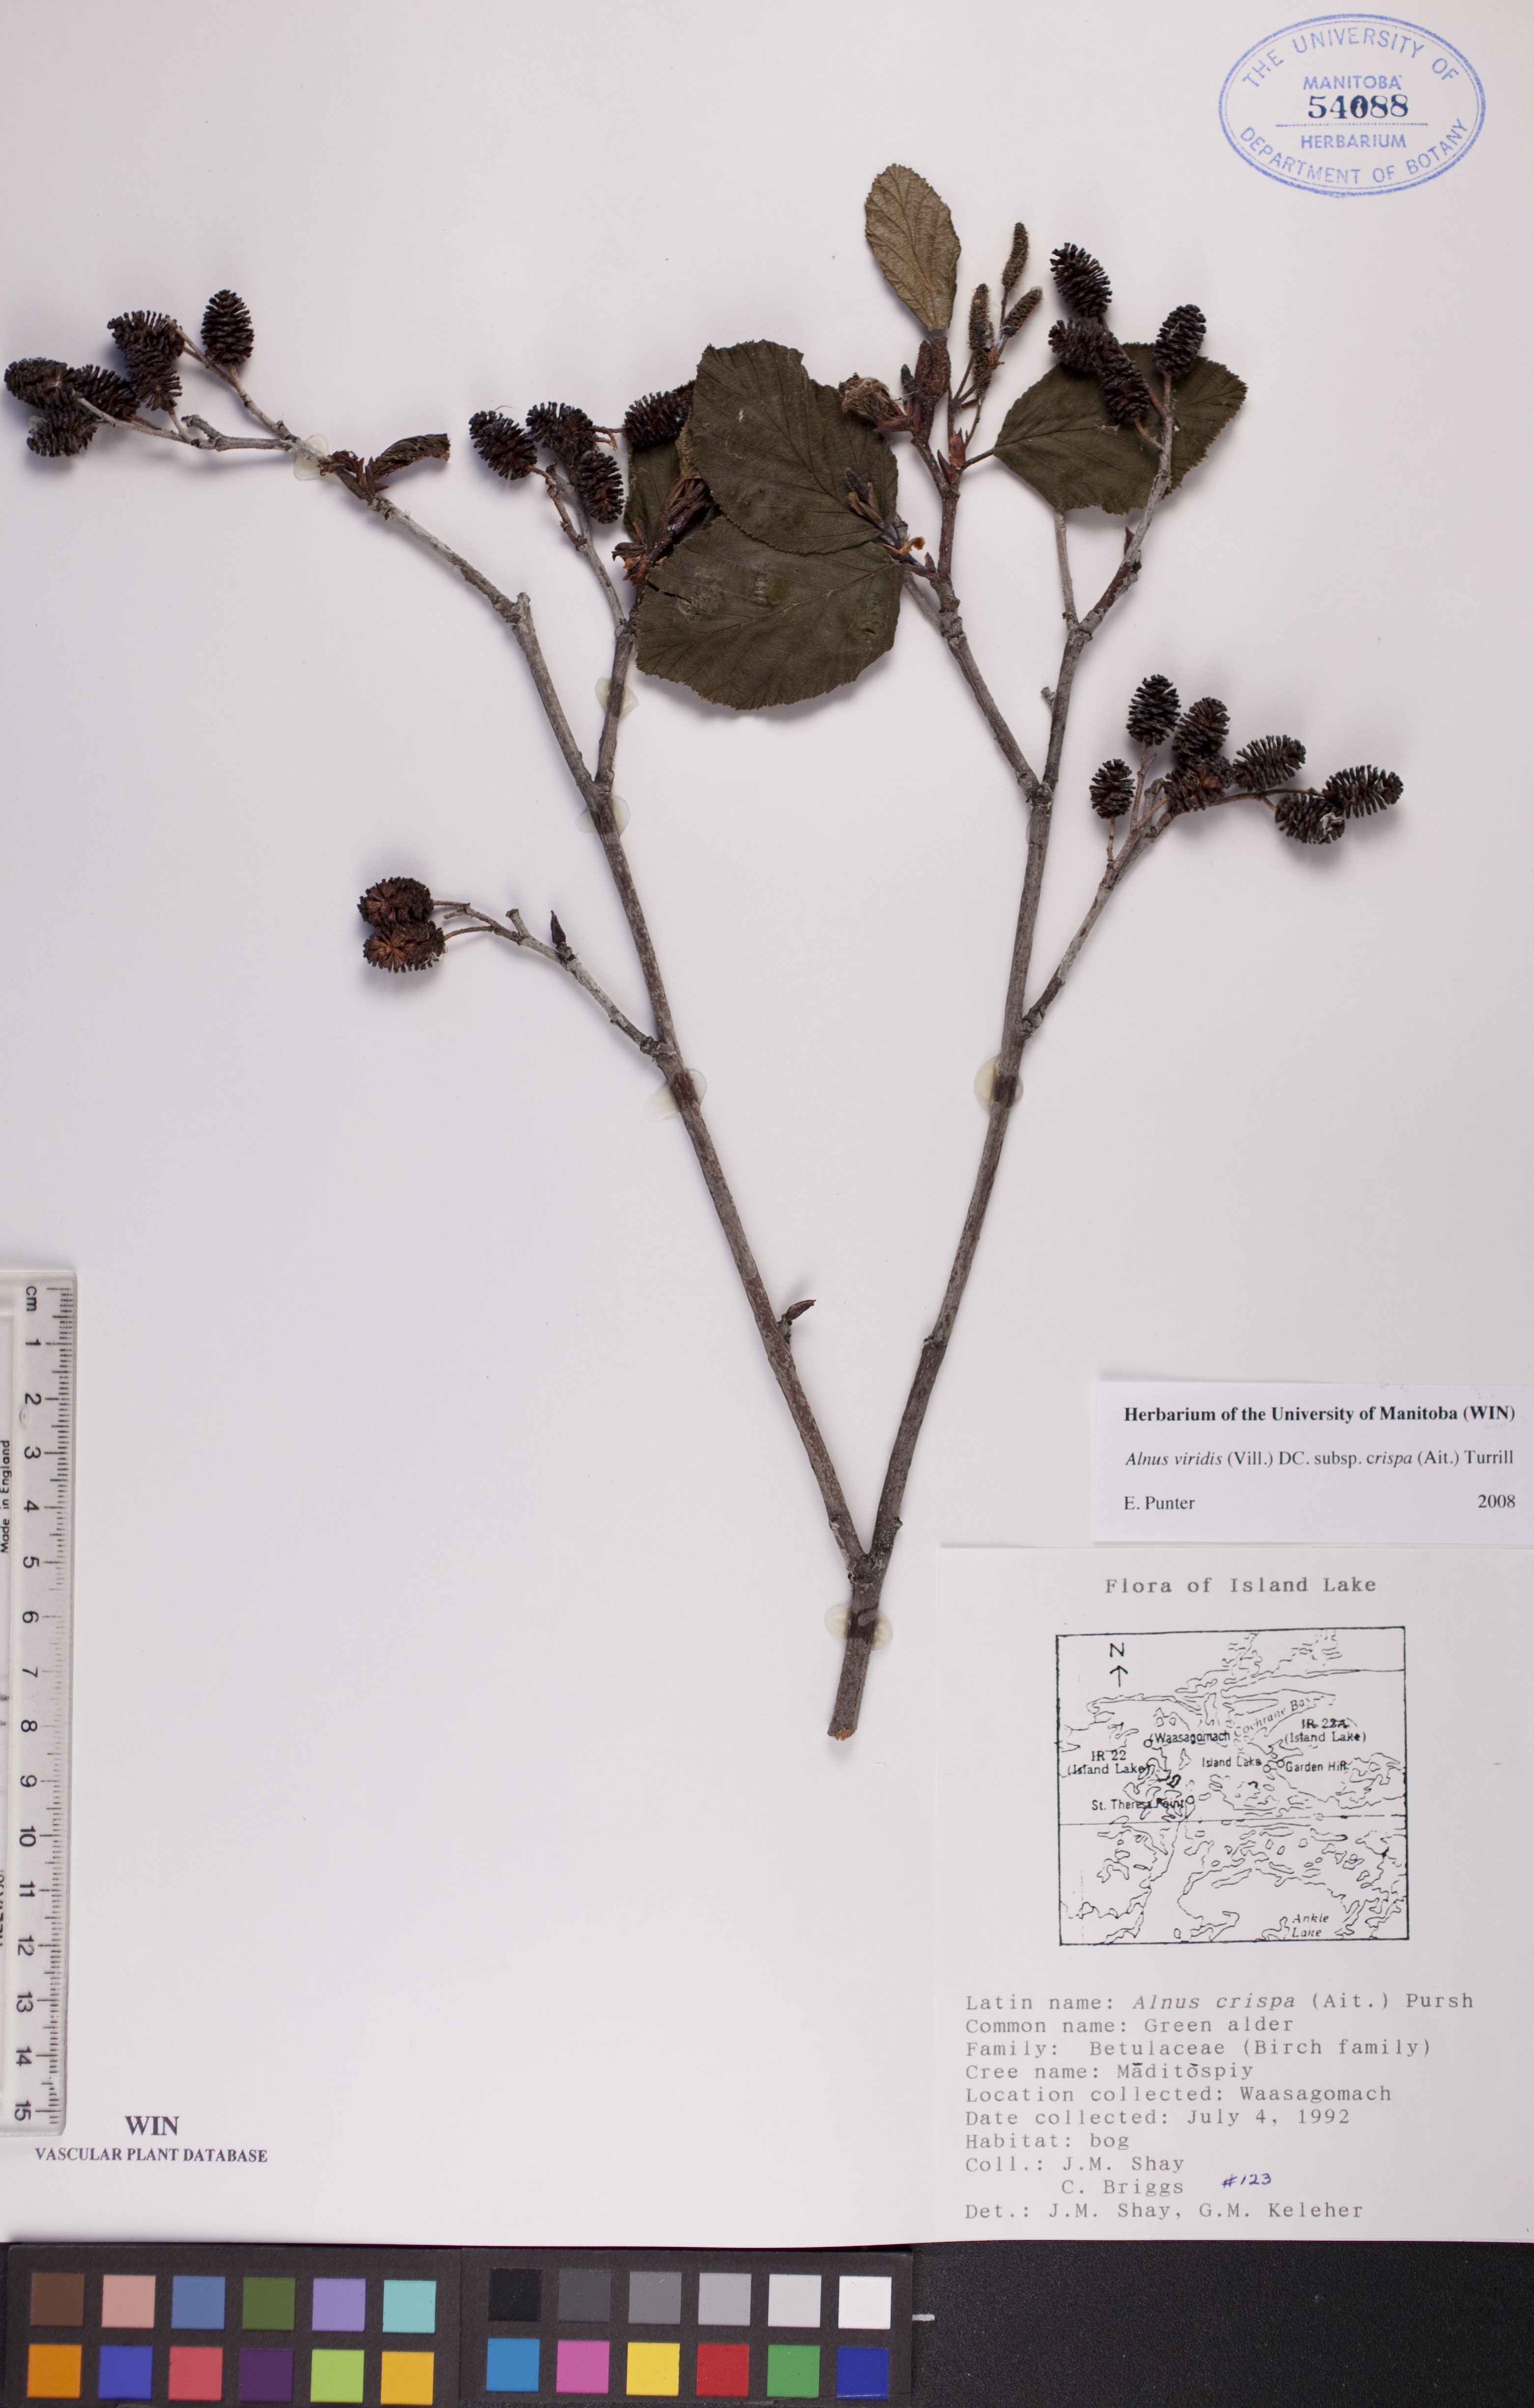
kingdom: Plantae
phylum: Tracheophyta
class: Magnoliopsida
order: Fagales
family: Betulaceae
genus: Alnus
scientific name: Alnus alnobetula
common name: Green alder
